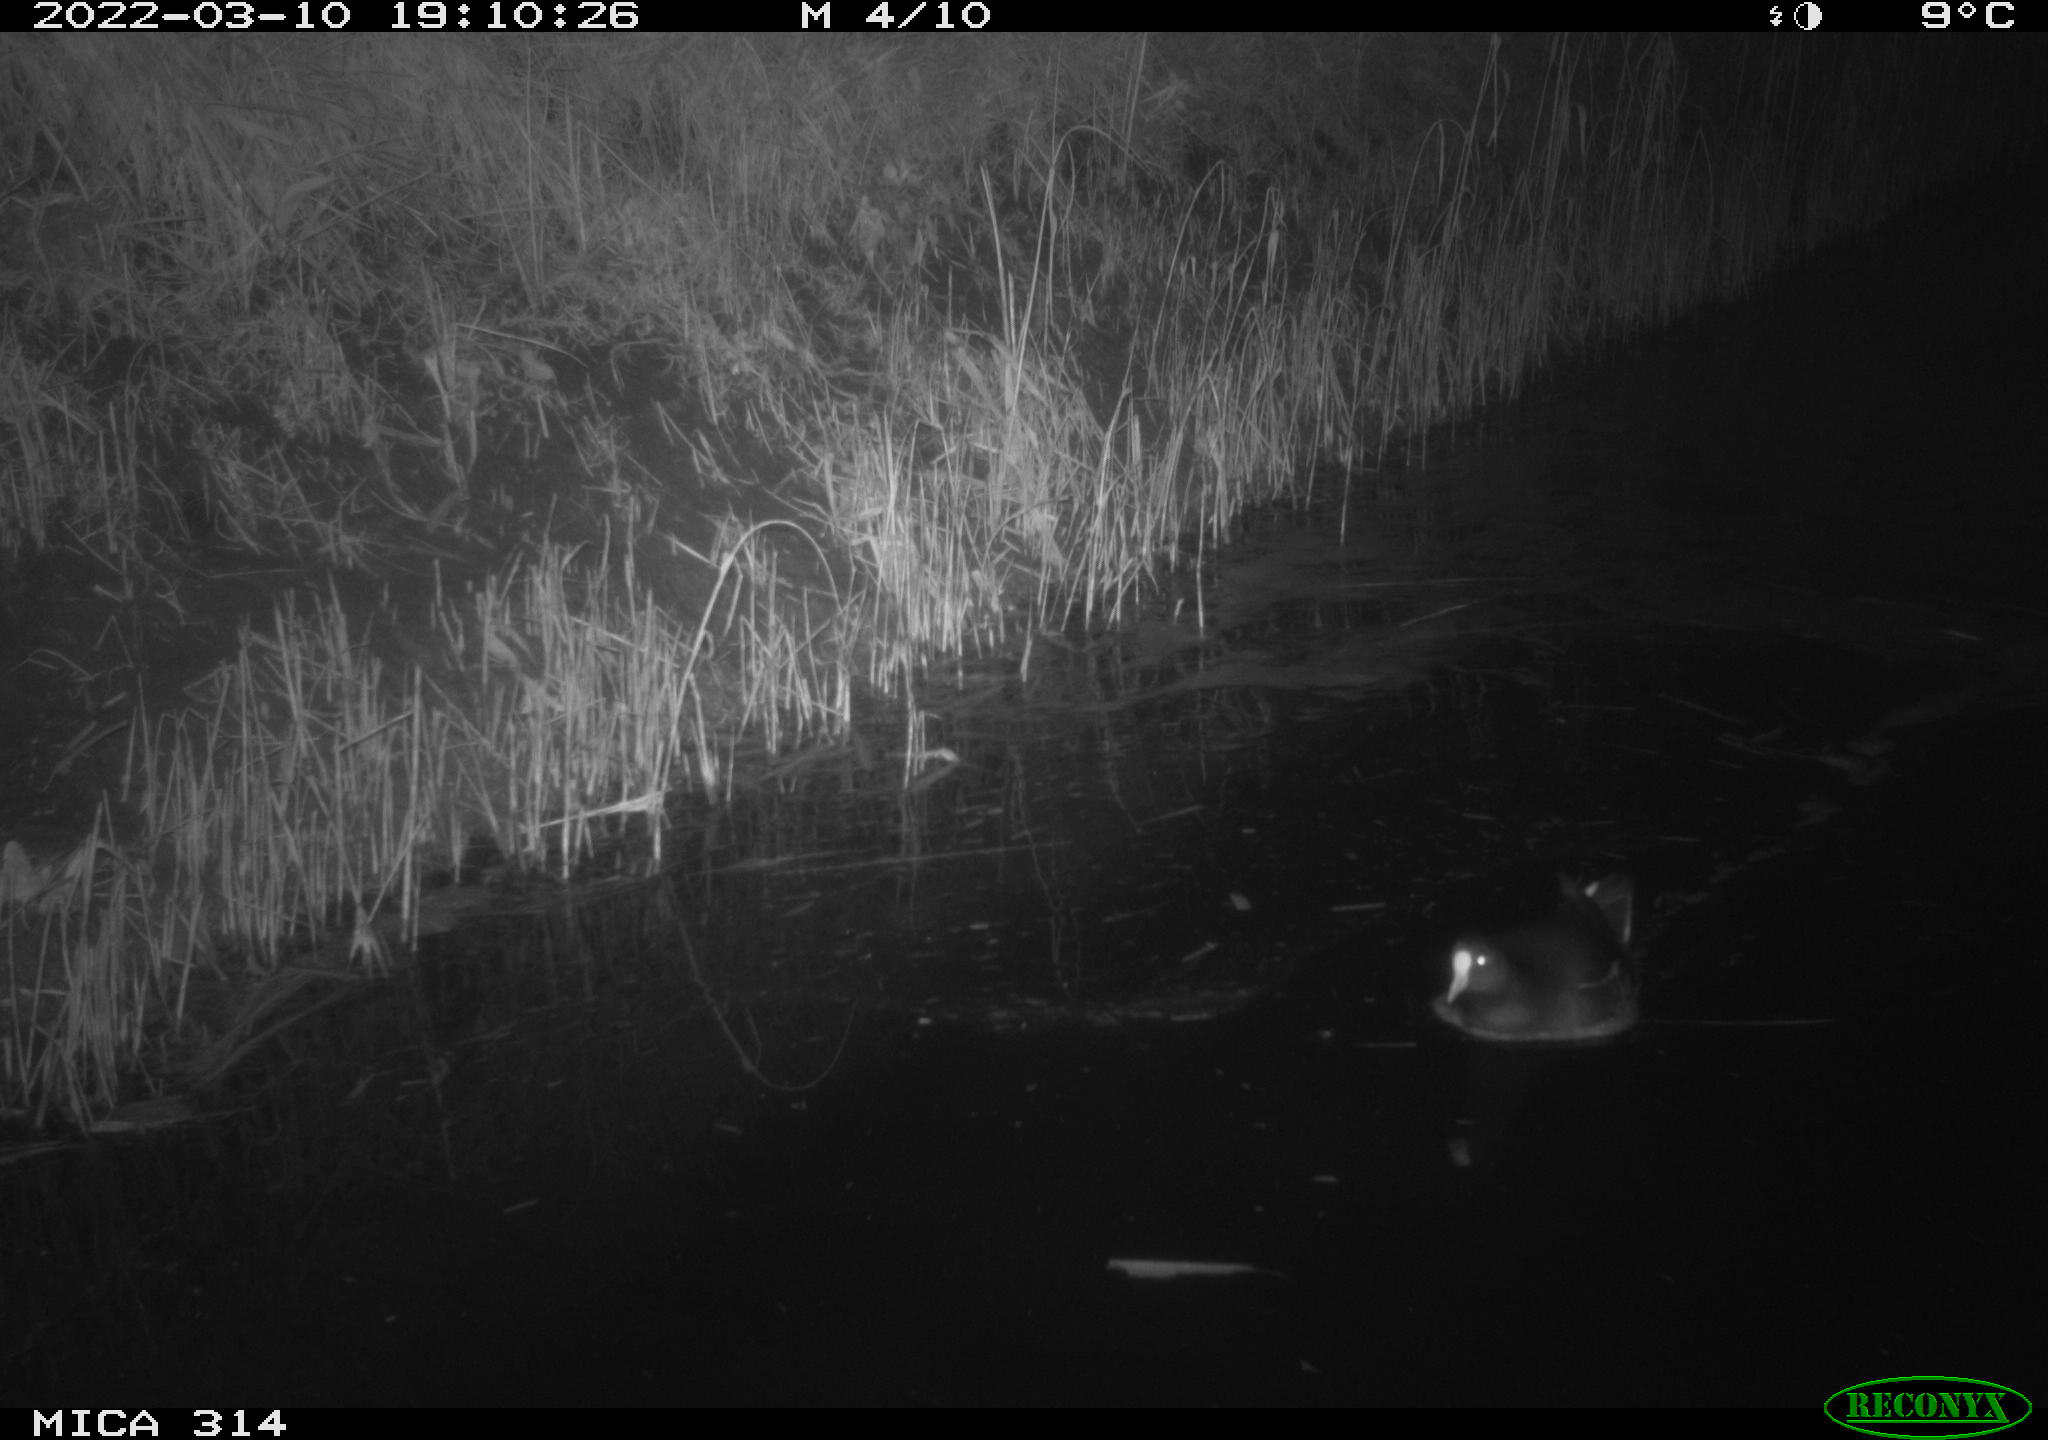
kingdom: Animalia
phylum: Chordata
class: Aves
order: Gruiformes
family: Rallidae
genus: Gallinula
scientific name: Gallinula chloropus
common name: Common moorhen
